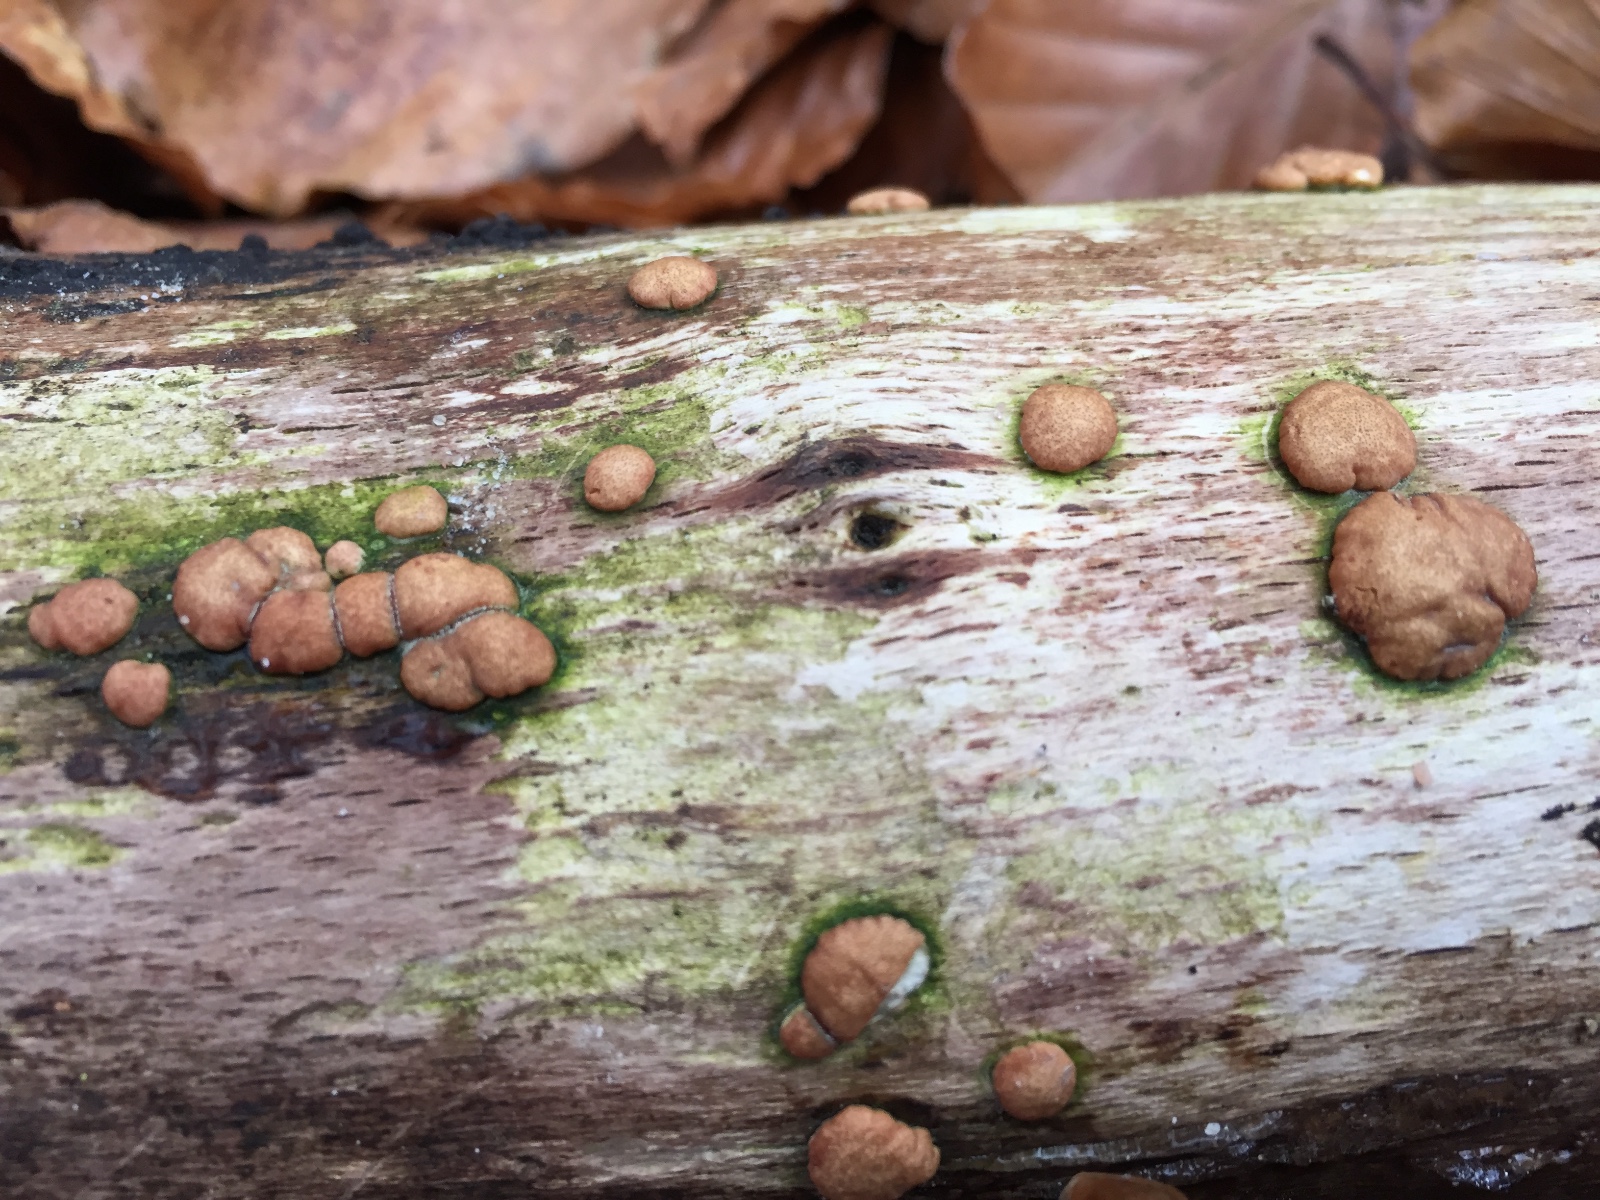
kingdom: Fungi
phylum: Ascomycota
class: Sordariomycetes
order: Hypocreales
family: Hypocreaceae
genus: Trichoderma
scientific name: Trichoderma europaeum
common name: rosabrun kødkerne
